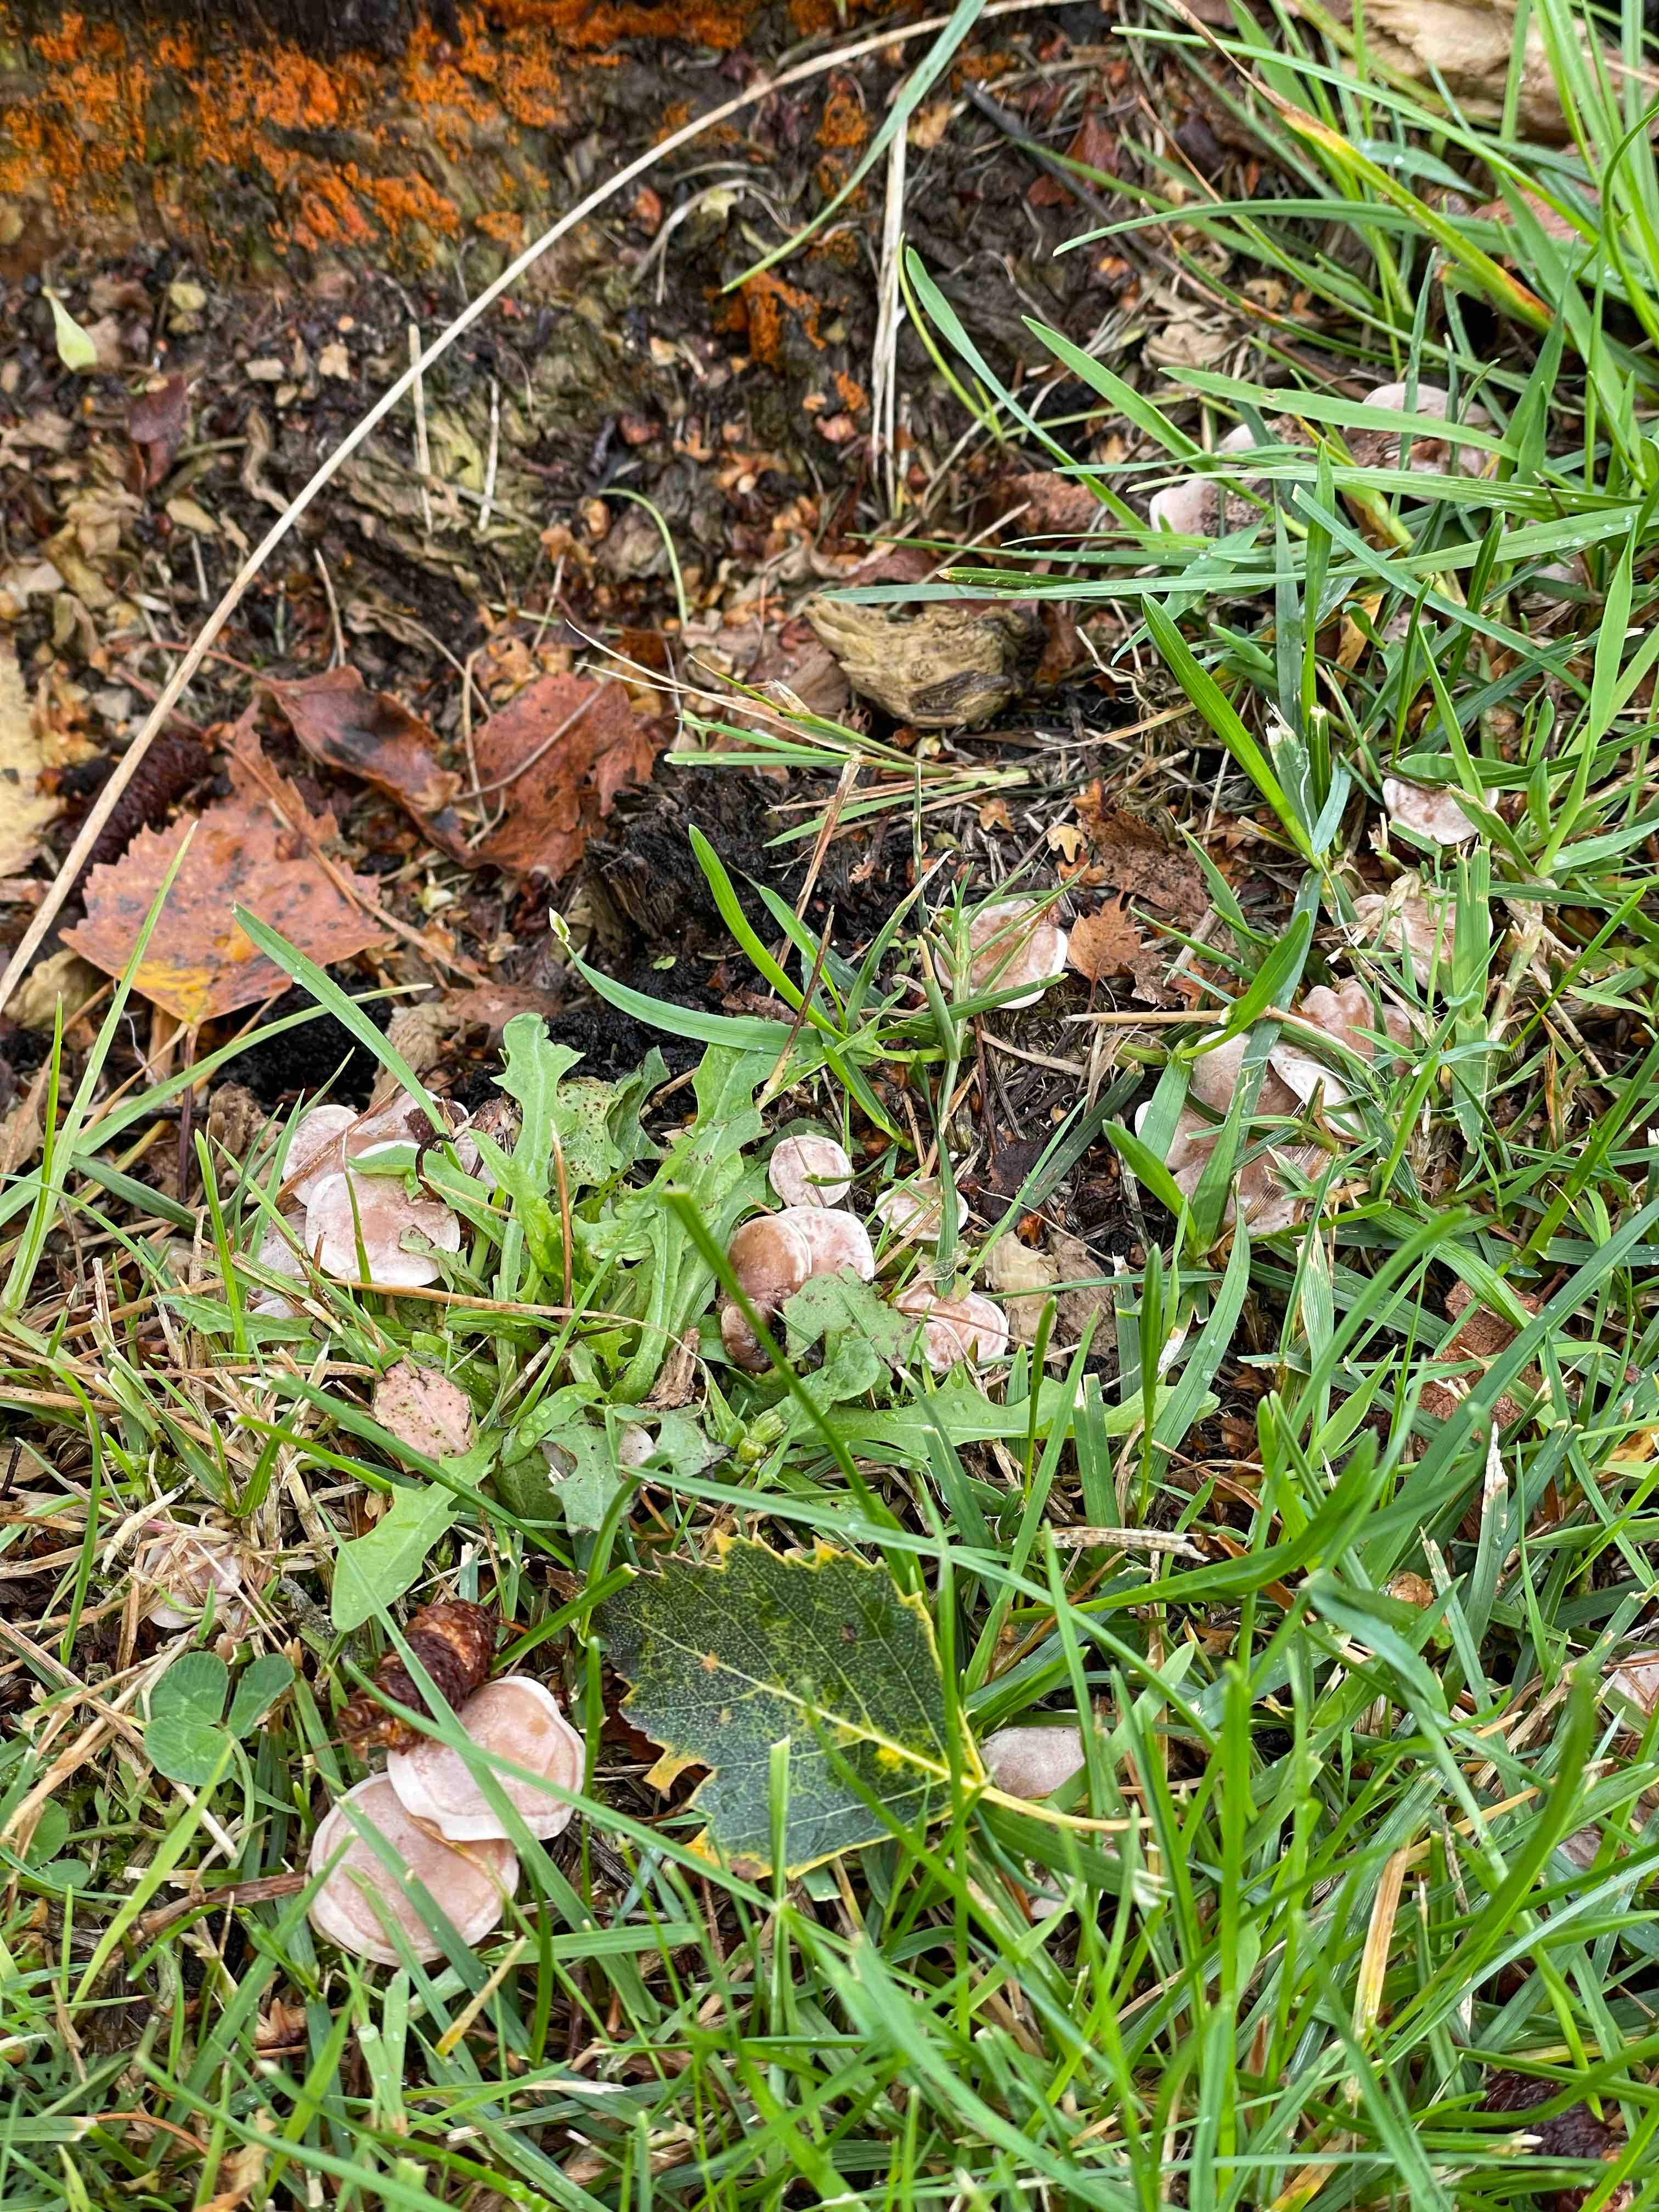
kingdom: Fungi
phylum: Basidiomycota
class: Agaricomycetes
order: Agaricales
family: Tricholomataceae
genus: Clitocybe
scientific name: Clitocybe rivulosa
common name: eng-tragthat
